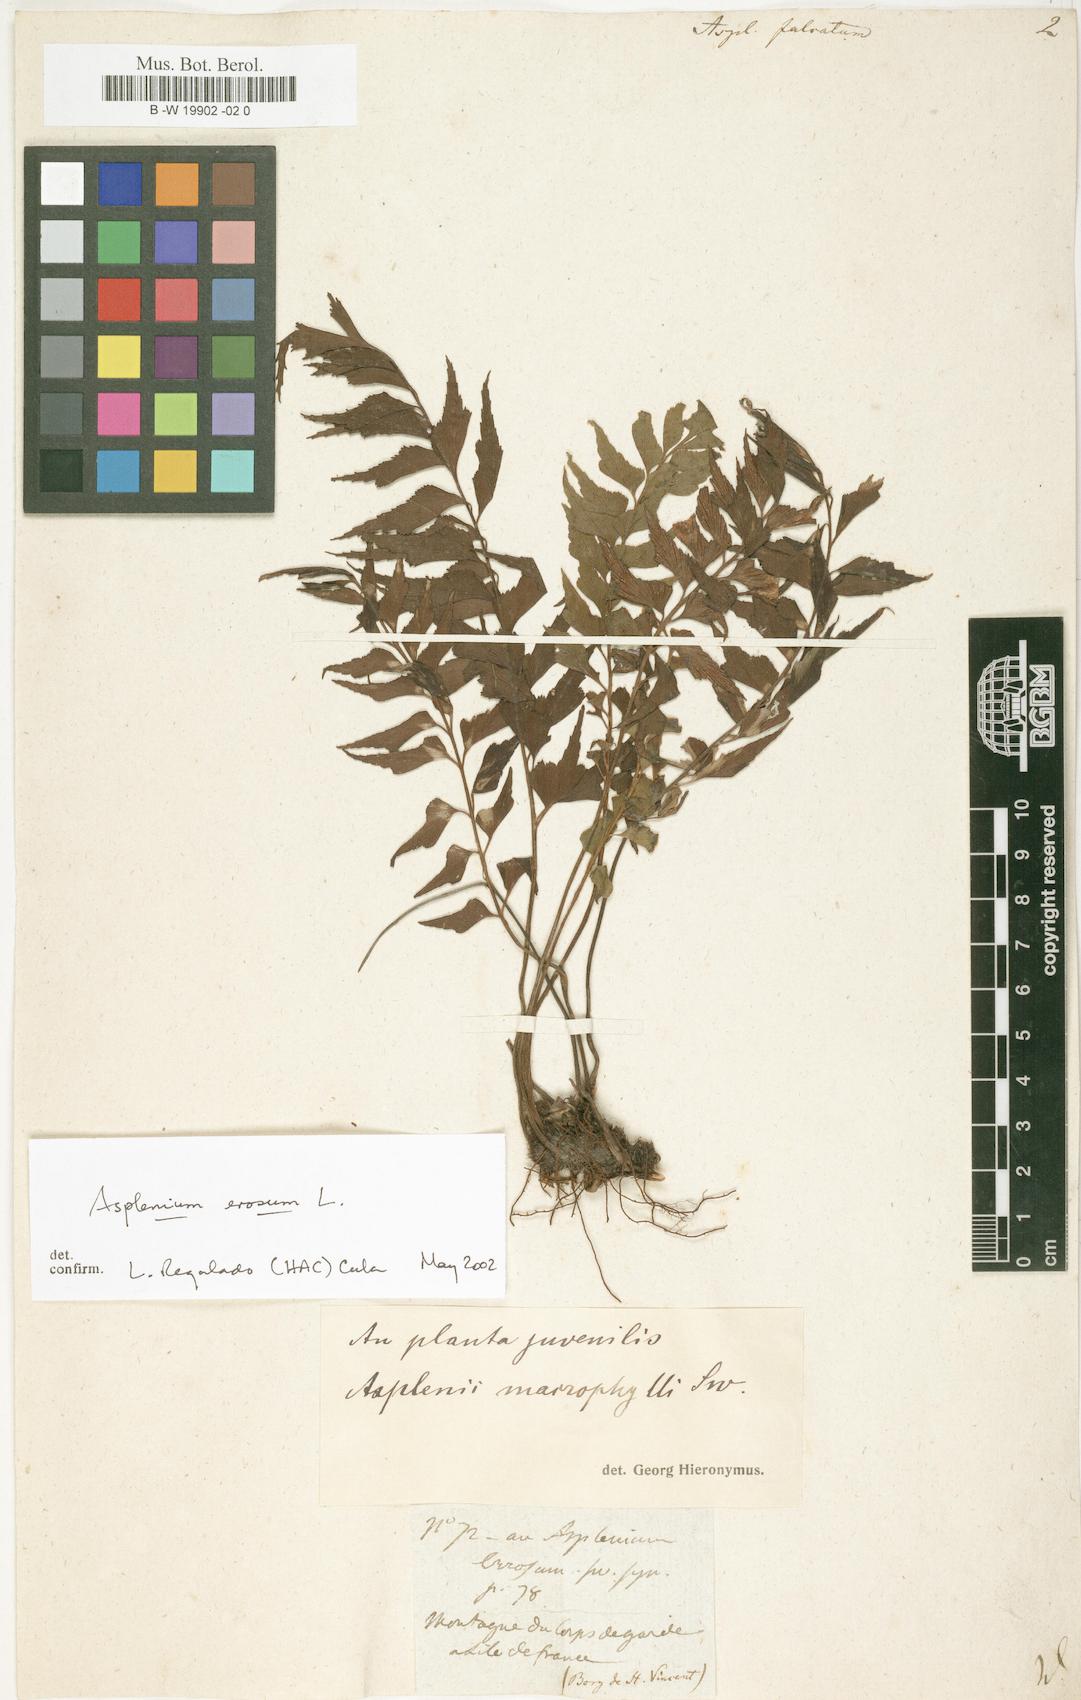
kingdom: Plantae
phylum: Tracheophyta
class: Polypodiopsida
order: Polypodiales
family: Aspleniaceae
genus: Asplenium
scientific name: Asplenium falcatum
